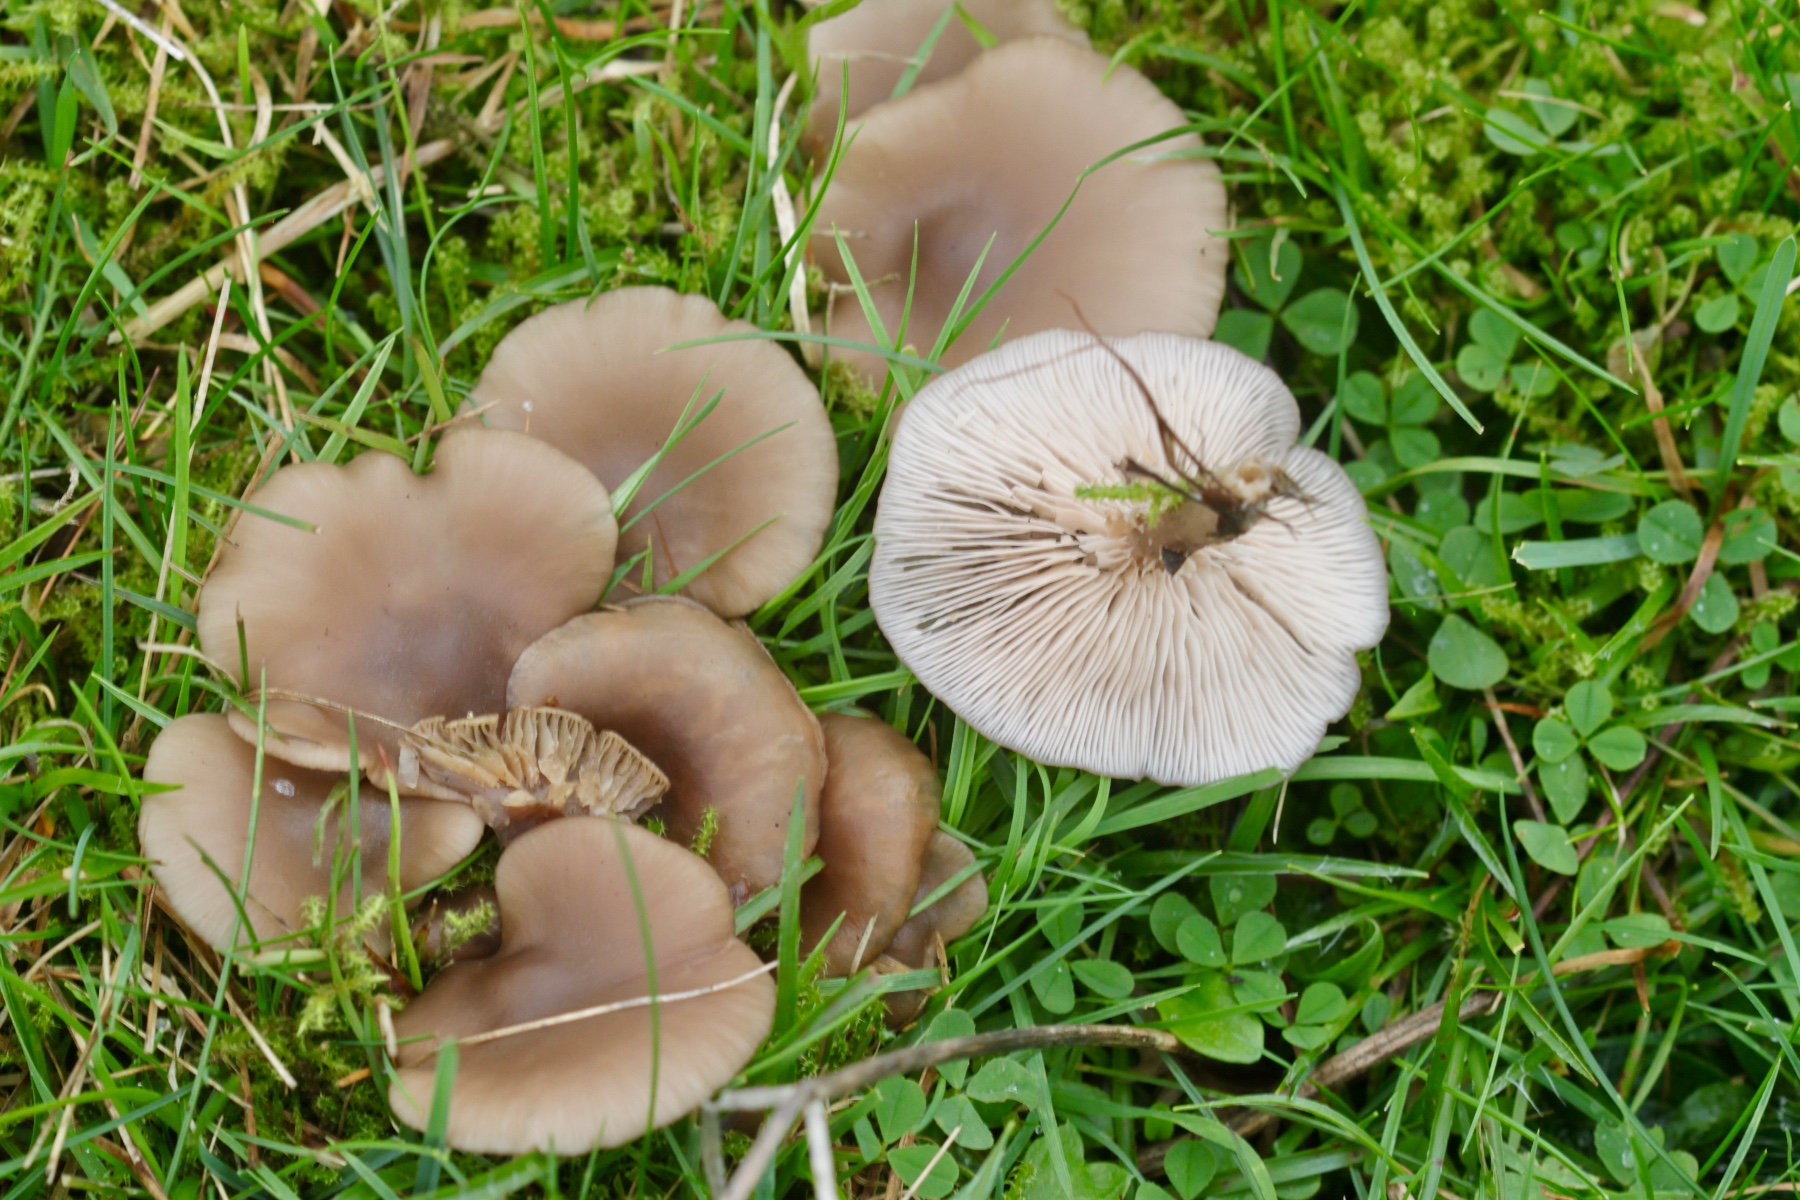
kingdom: Fungi
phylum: Basidiomycota
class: Agaricomycetes
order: Agaricales
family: Tricholomataceae
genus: Lepista
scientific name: Lepista sordida
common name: spinkel hekseringshat
